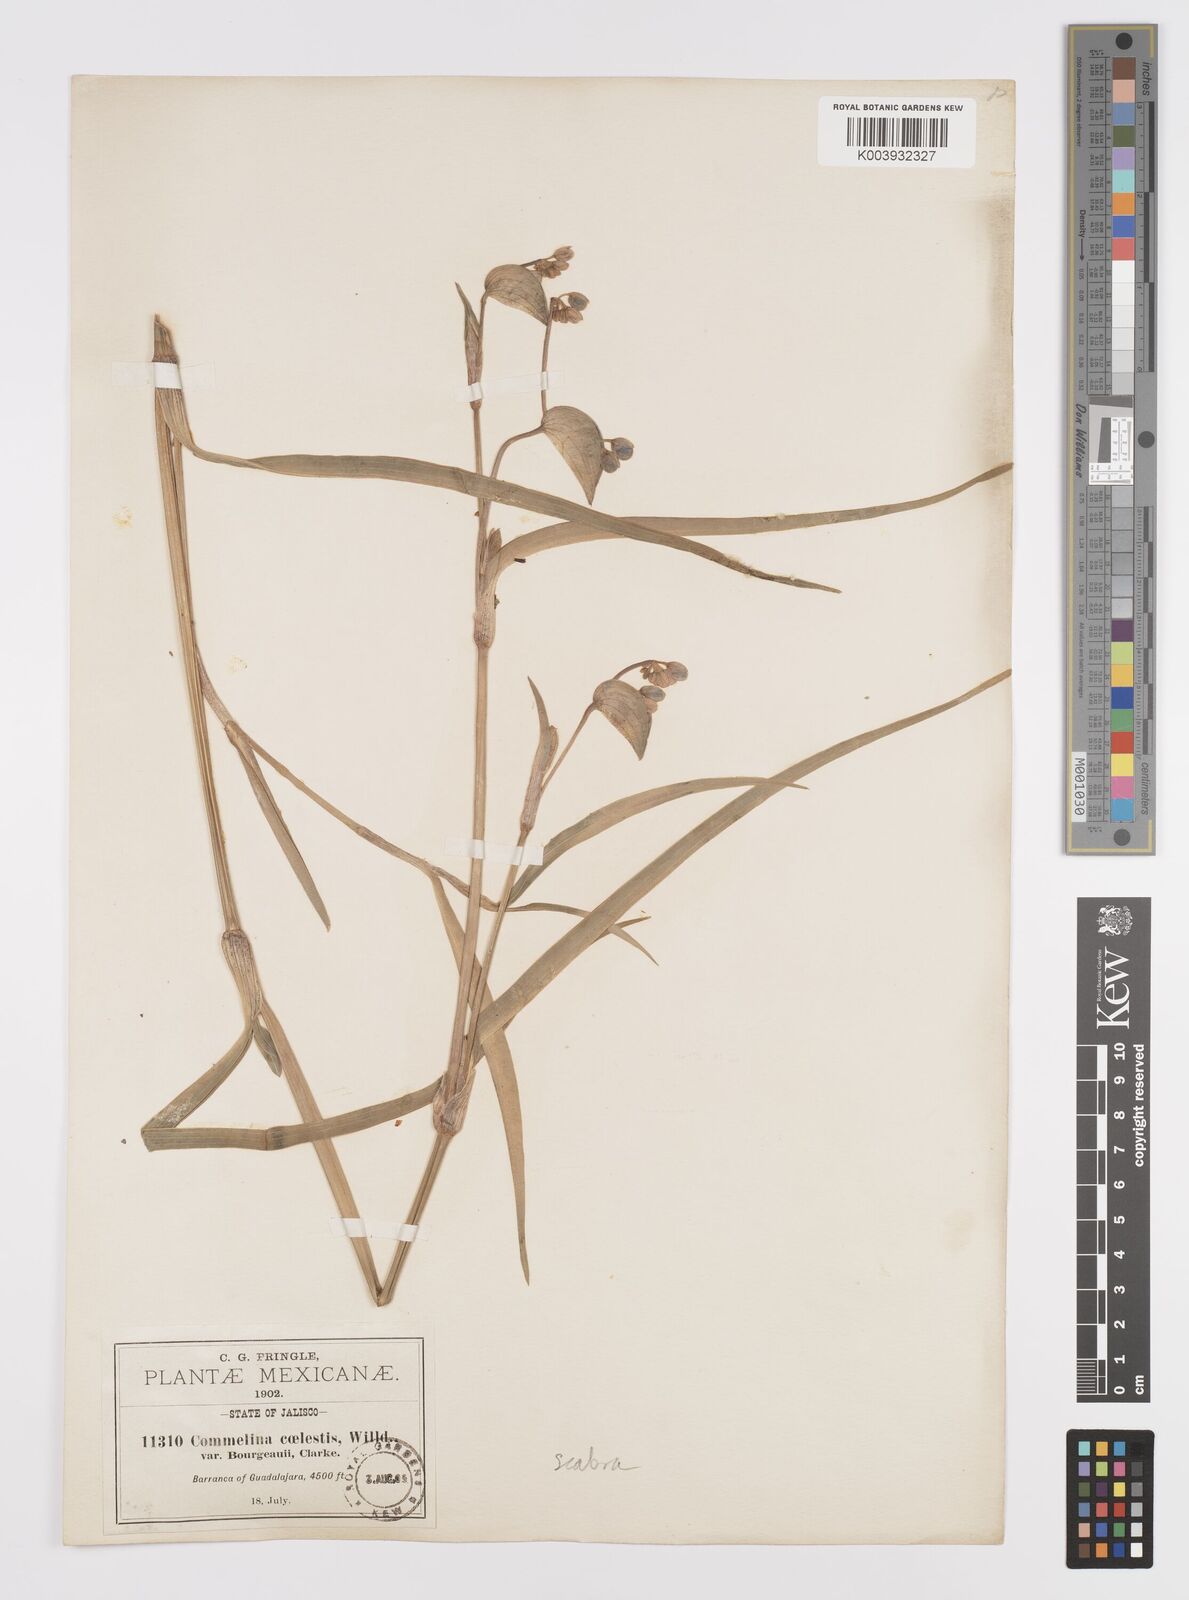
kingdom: Plantae
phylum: Tracheophyta
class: Liliopsida
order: Commelinales
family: Commelinaceae
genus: Commelina
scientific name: Commelina scabra
